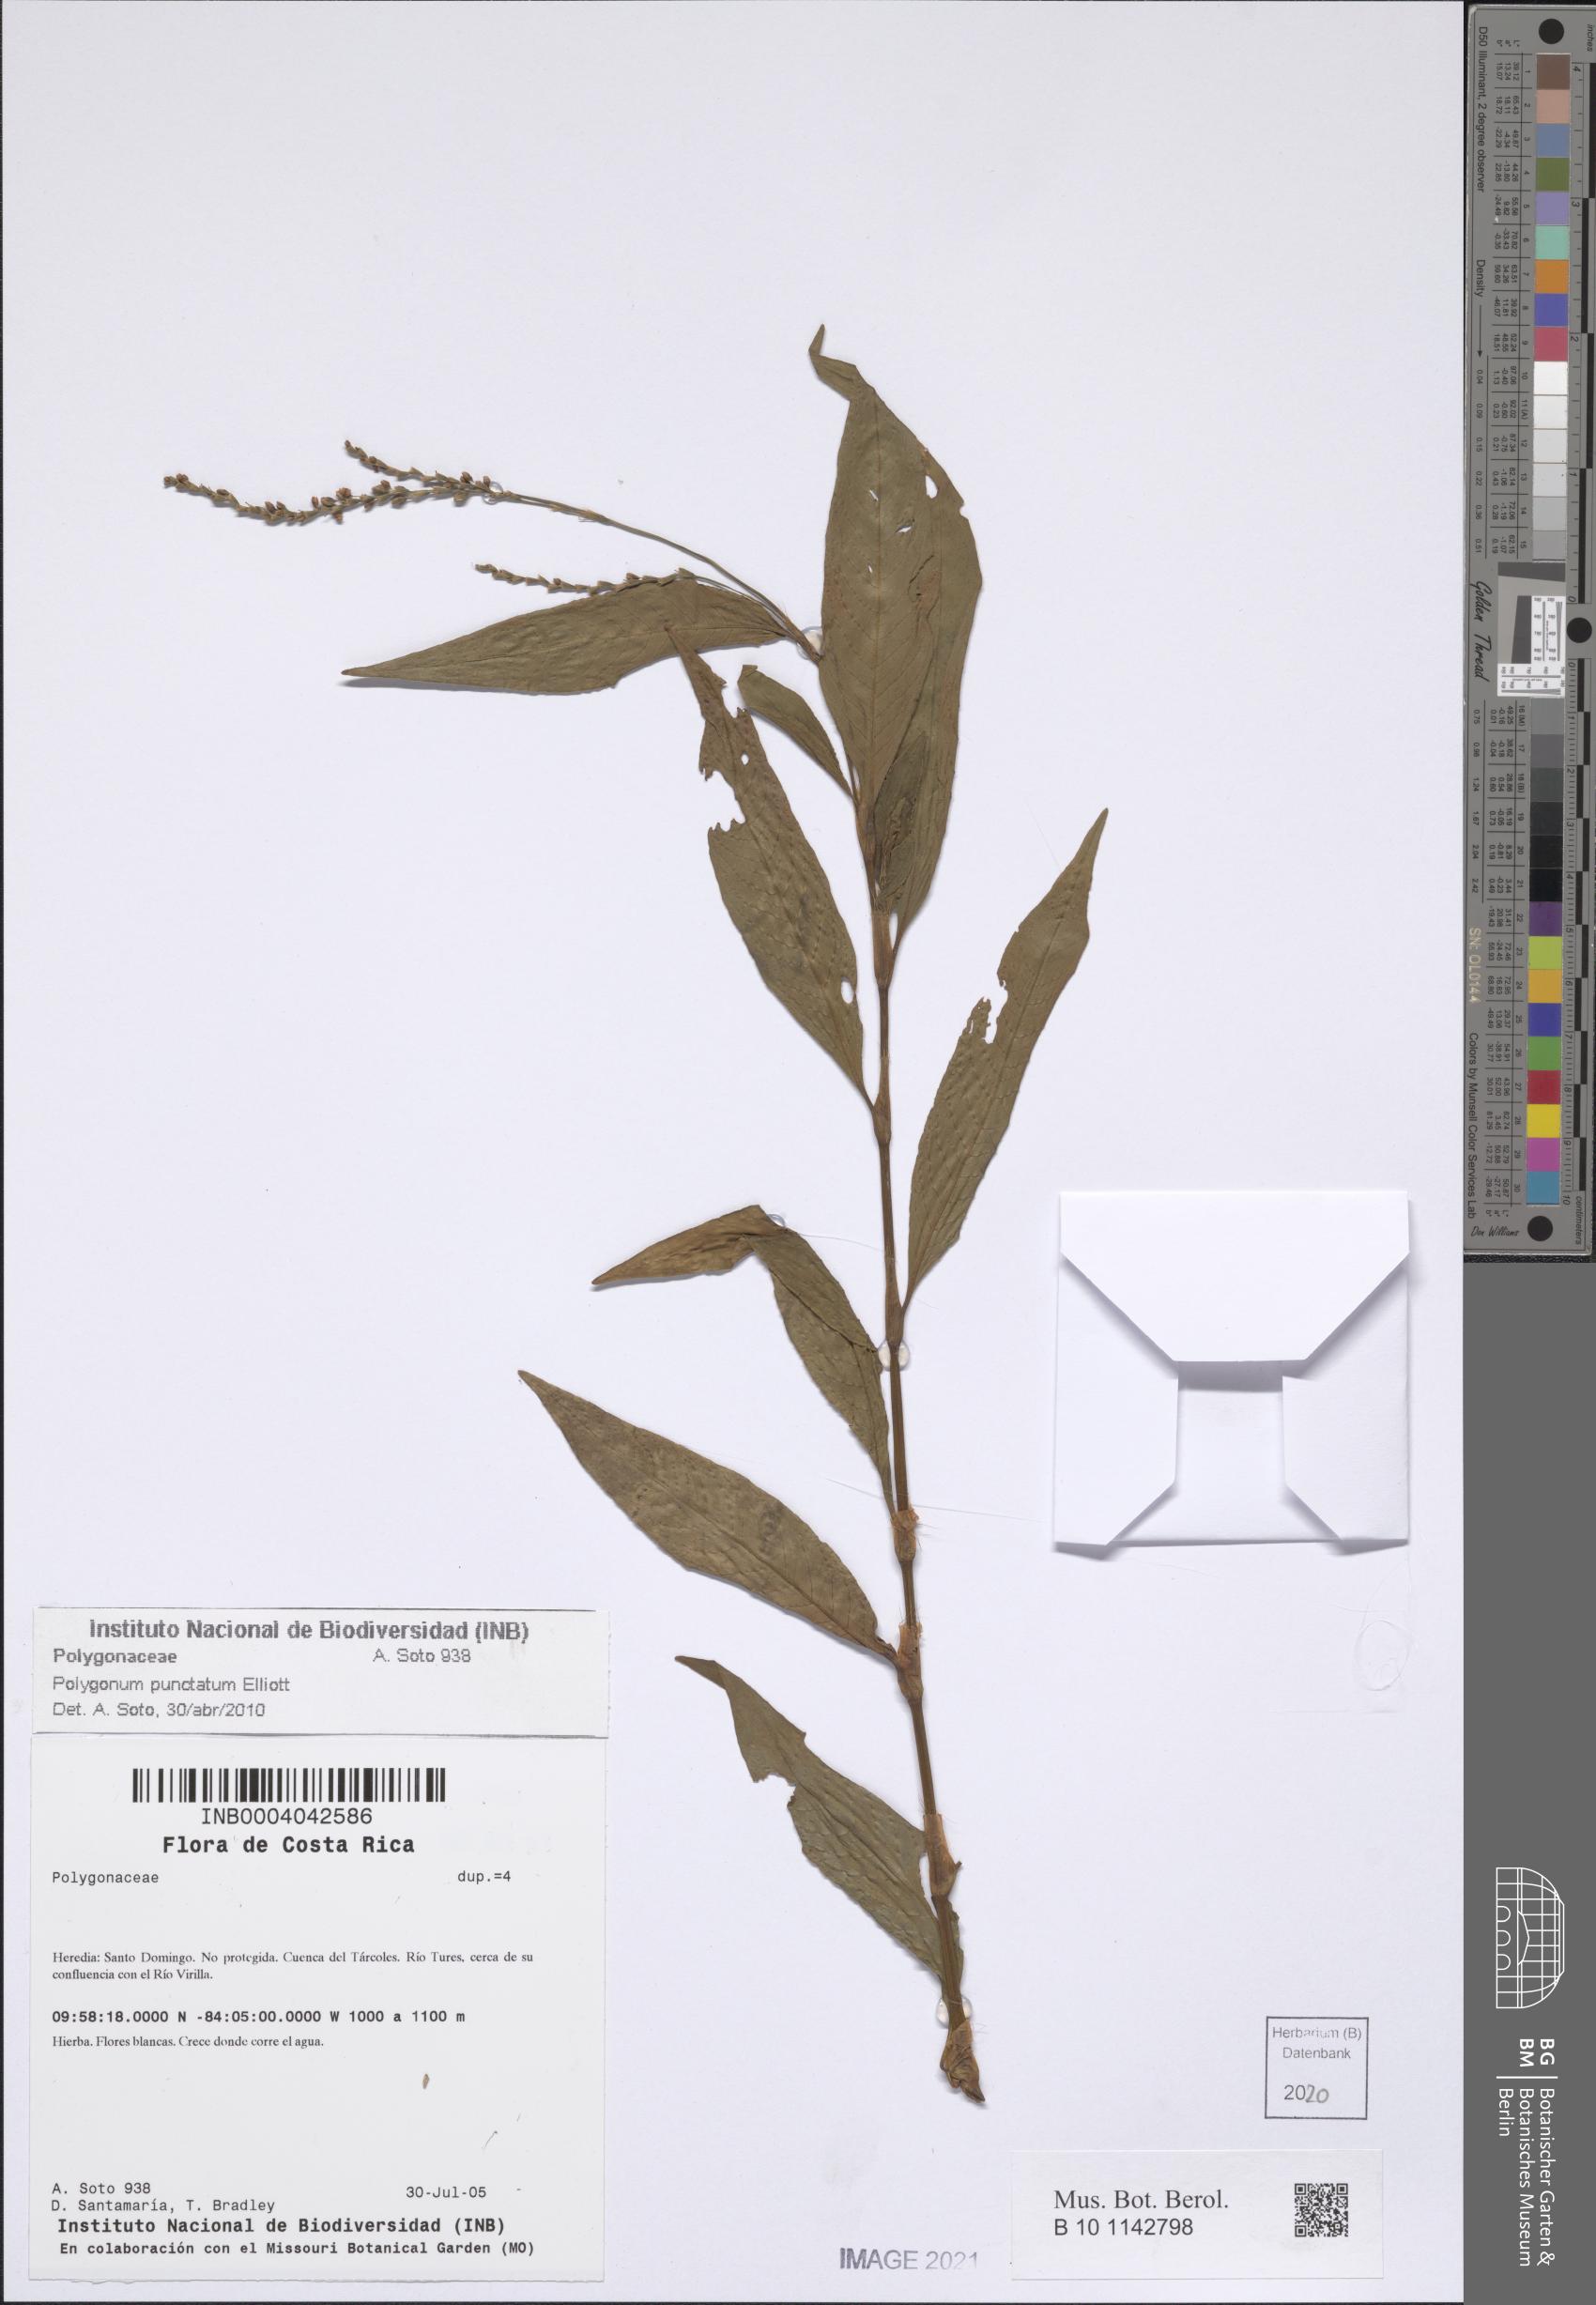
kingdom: Plantae
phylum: Tracheophyta
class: Magnoliopsida
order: Caryophyllales
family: Polygonaceae
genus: Persicaria
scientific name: Persicaria punctata
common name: Dotted smartweed
